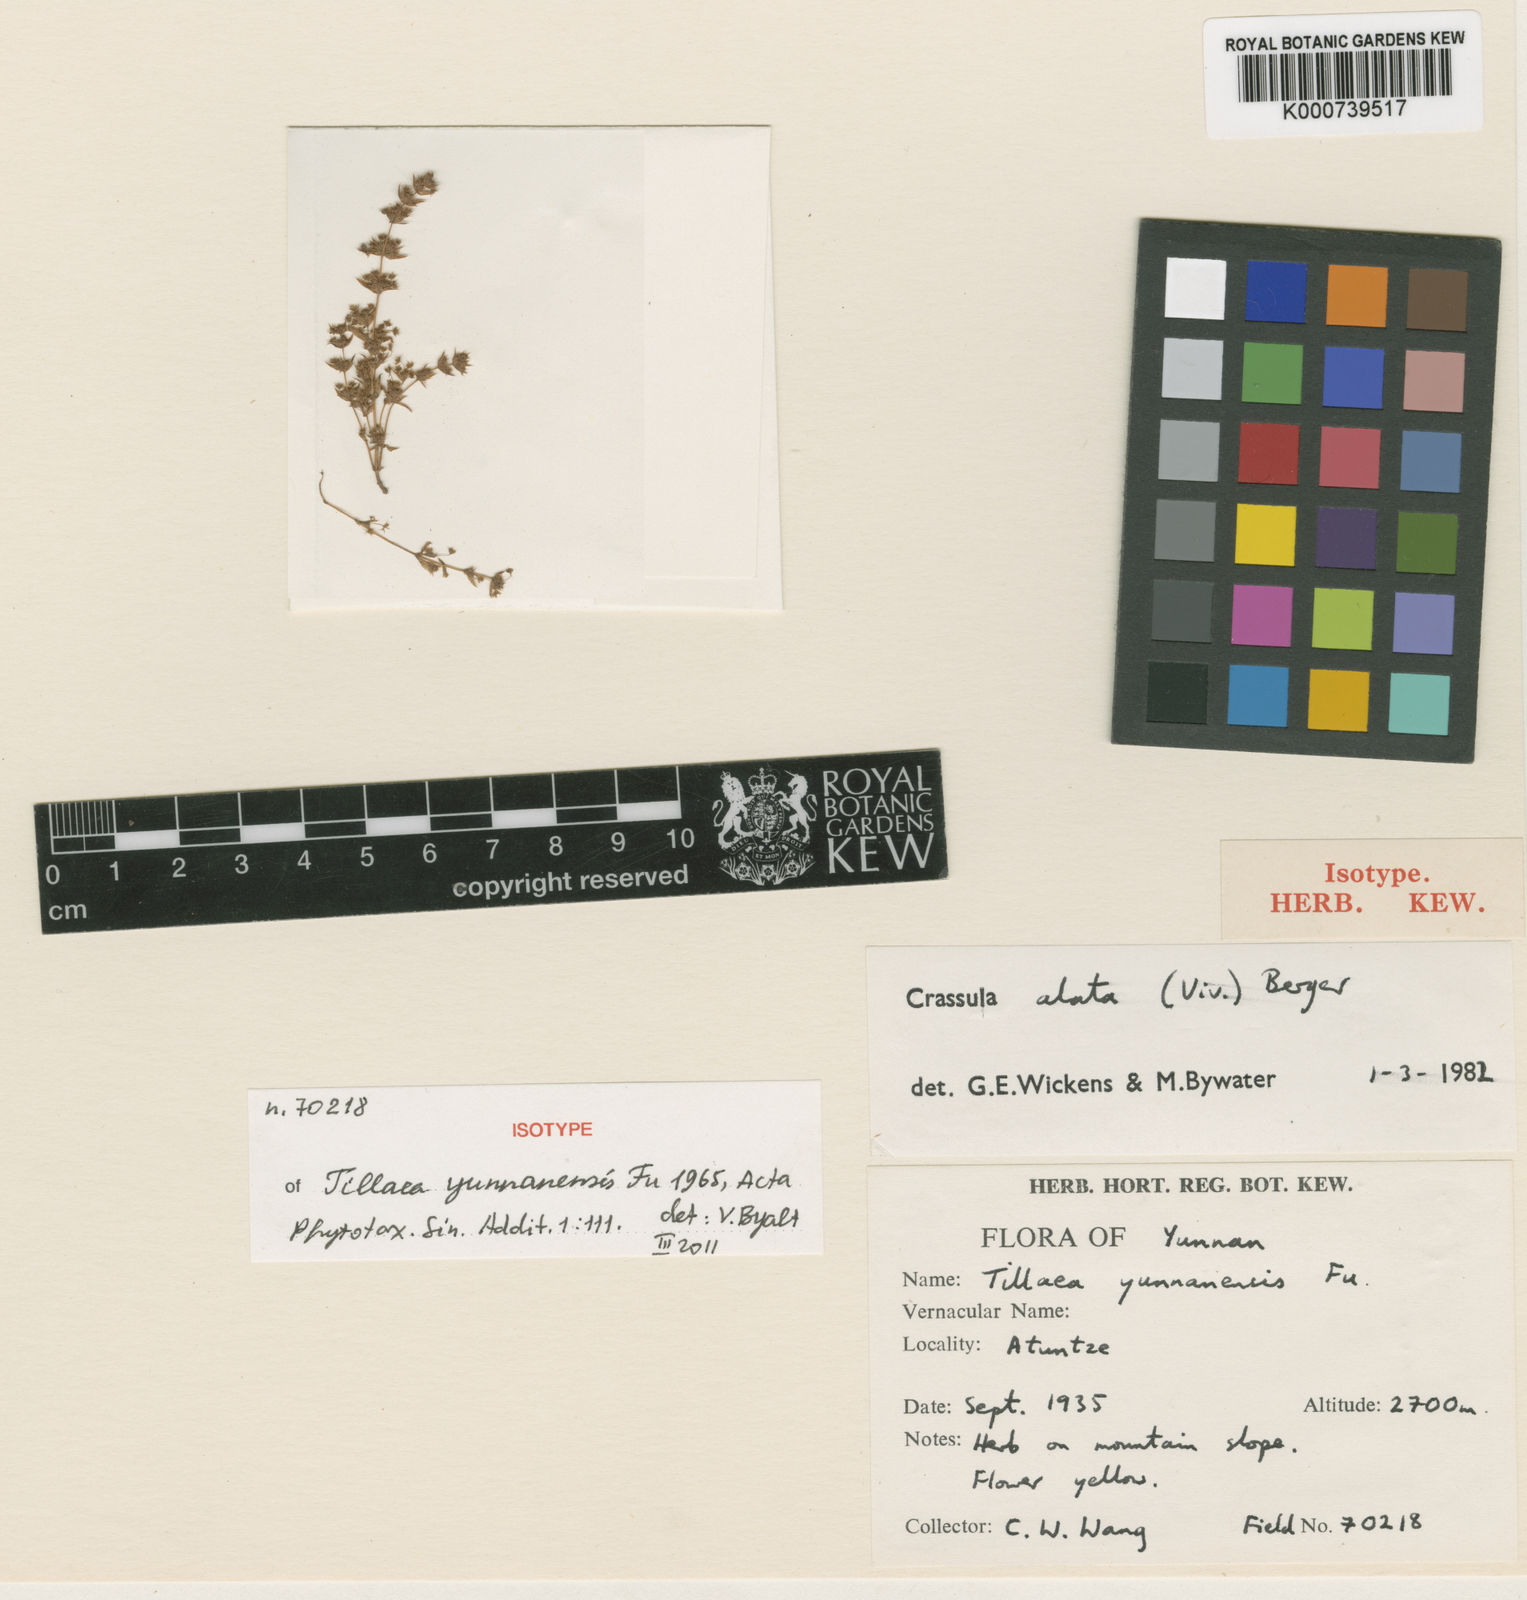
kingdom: Plantae
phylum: Tracheophyta
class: Magnoliopsida
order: Saxifragales
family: Crassulaceae
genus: Crassula
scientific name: Crassula aquatica
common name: Pigmyweed
